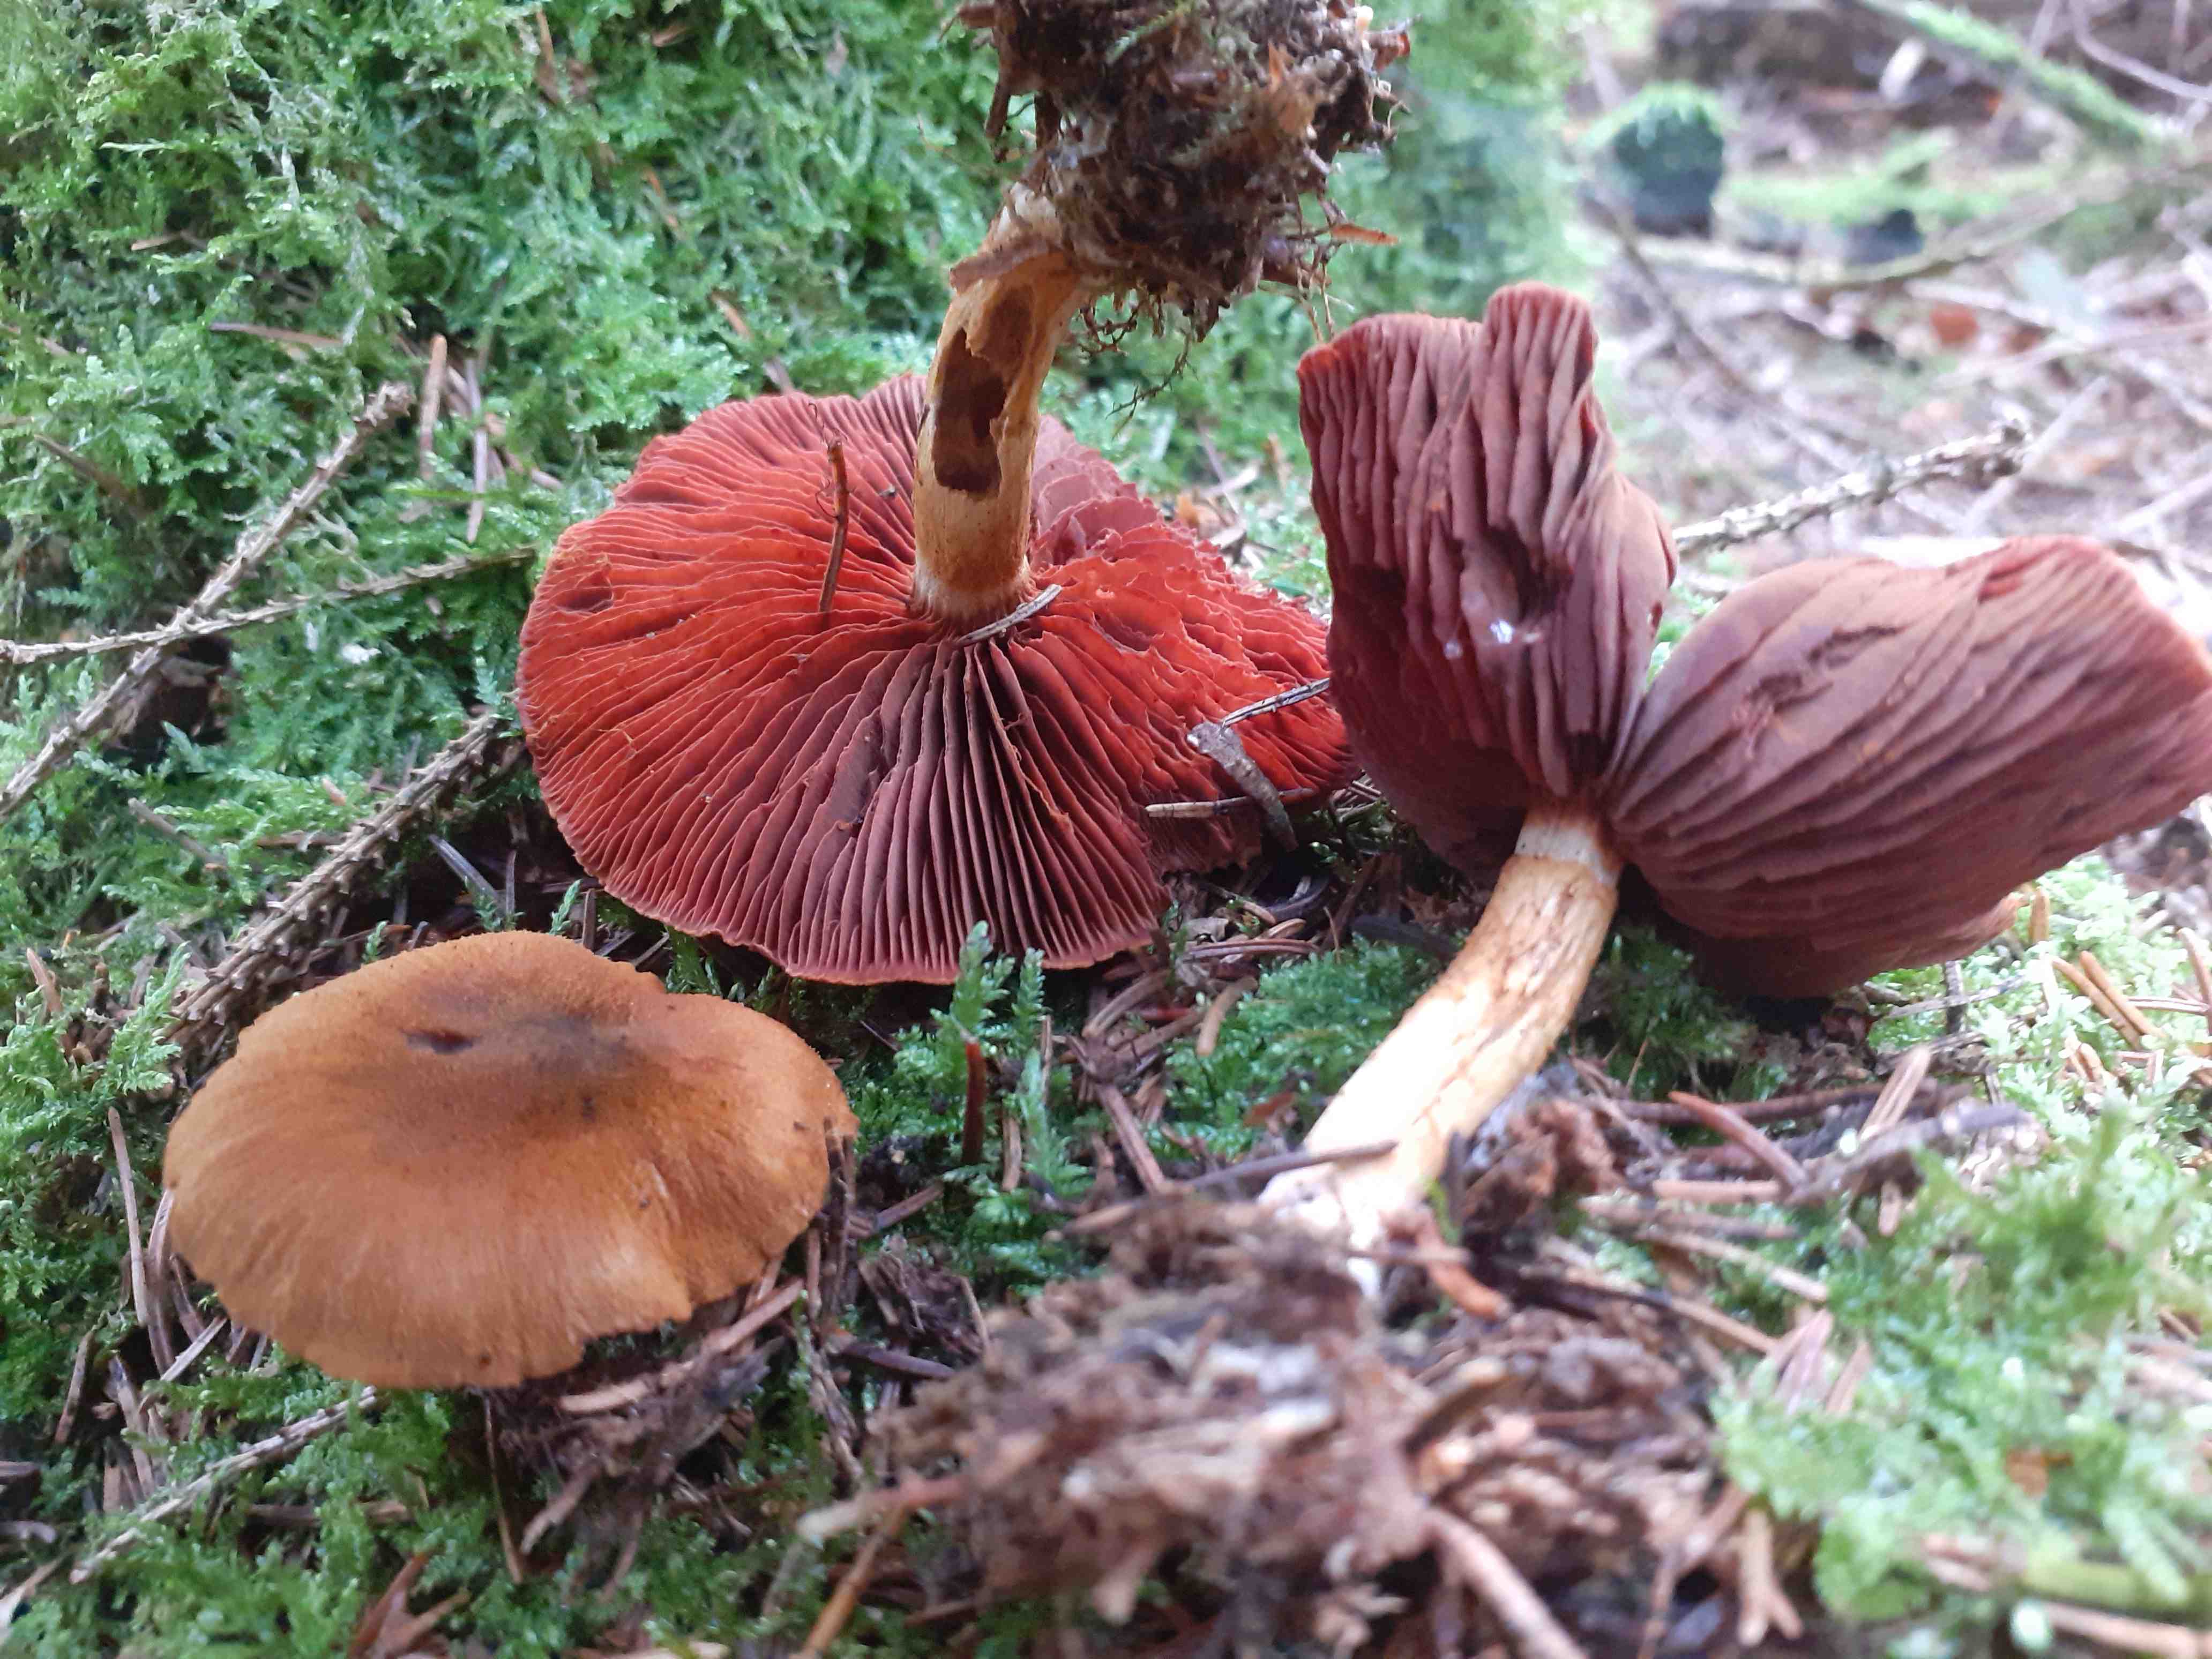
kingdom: Fungi
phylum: Basidiomycota
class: Agaricomycetes
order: Agaricales
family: Cortinariaceae
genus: Cortinarius
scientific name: Cortinarius purpureus
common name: brunrød slørhat
